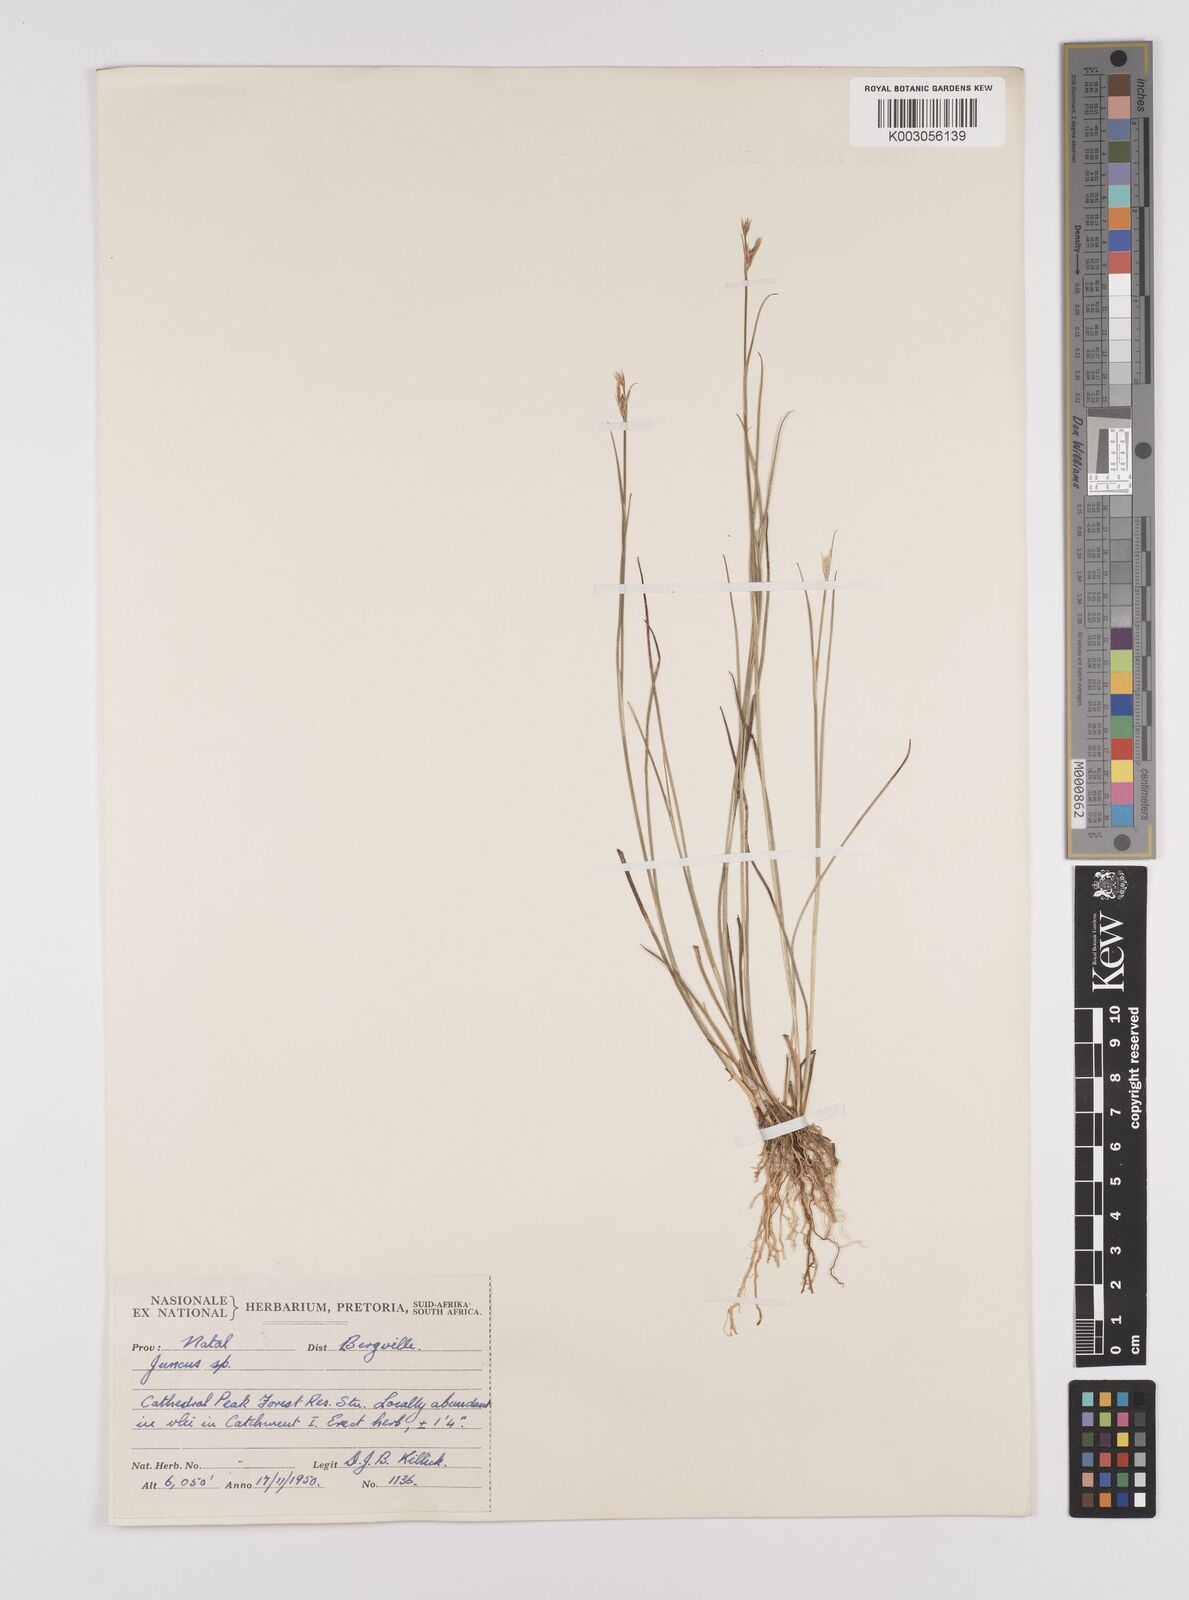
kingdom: Plantae
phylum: Tracheophyta
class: Liliopsida
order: Poales
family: Juncaceae
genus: Juncus
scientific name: Juncus
